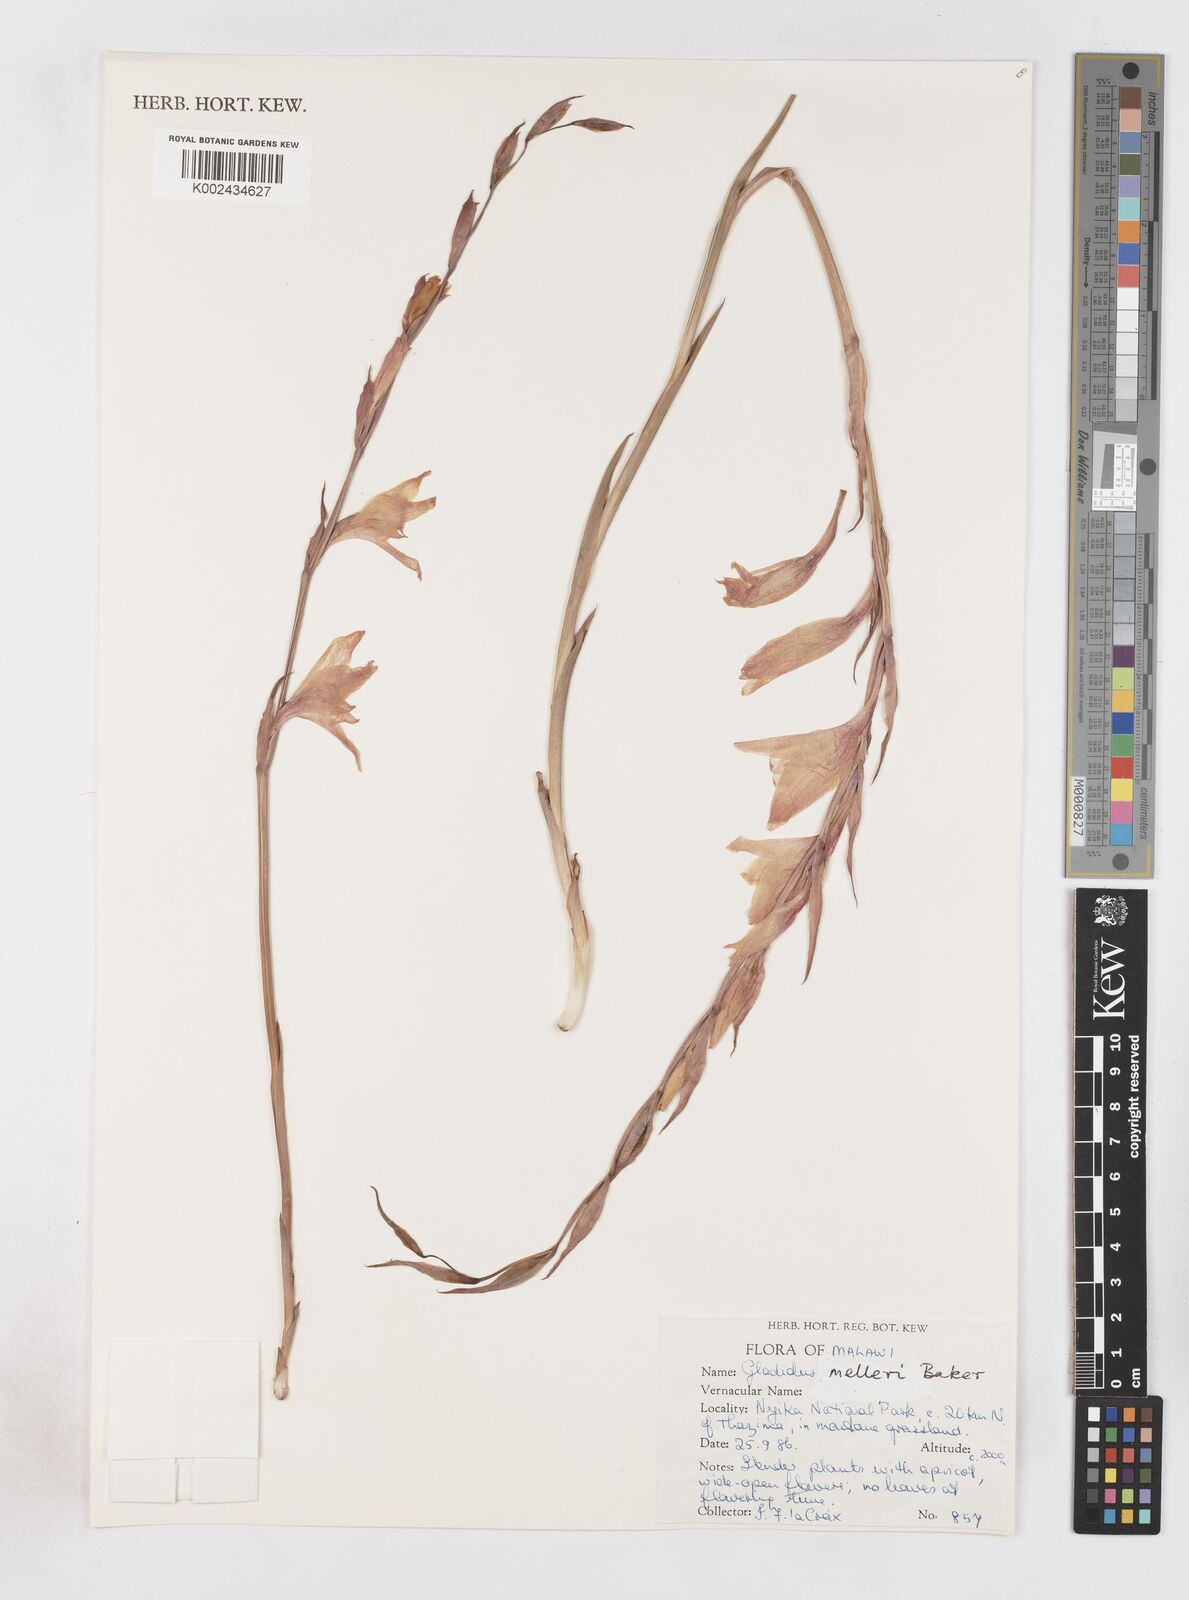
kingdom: Plantae
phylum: Tracheophyta
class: Liliopsida
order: Asparagales
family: Iridaceae
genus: Gladiolus
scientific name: Gladiolus melleri
